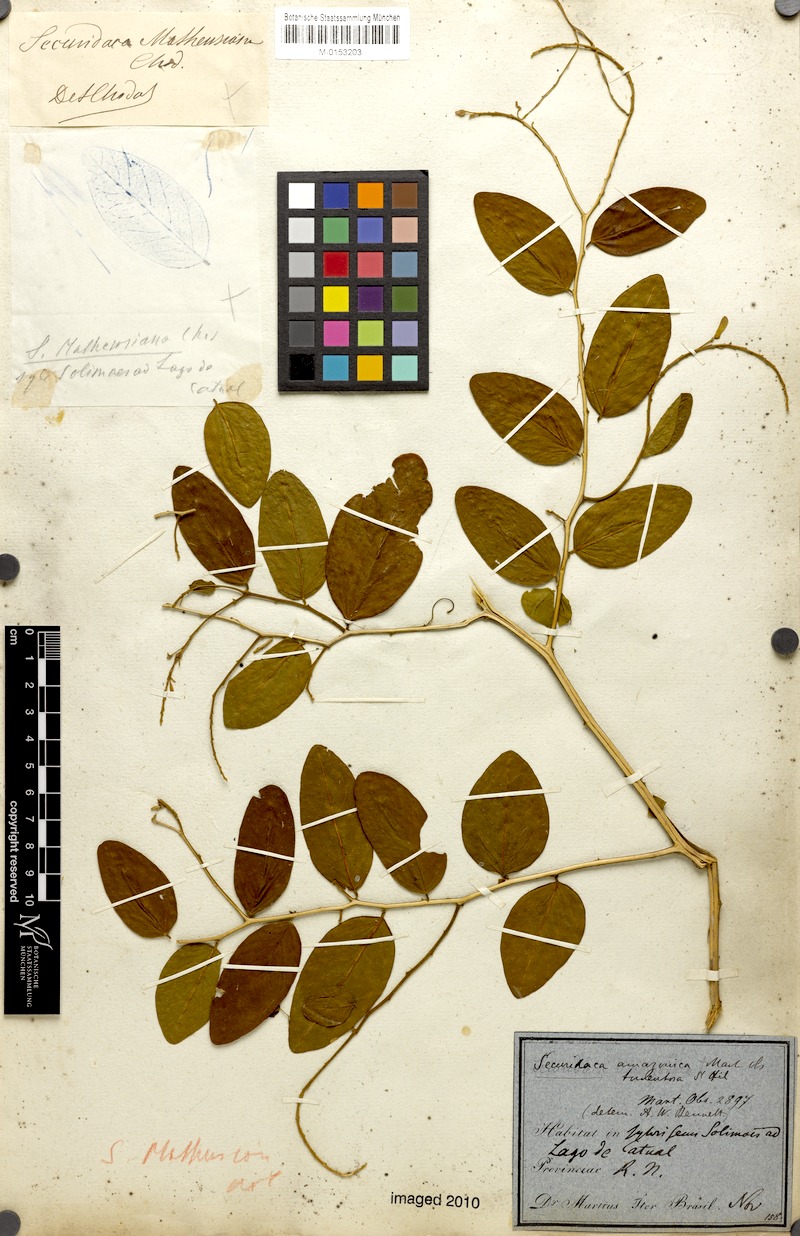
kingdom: Plantae
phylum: Tracheophyta
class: Magnoliopsida
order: Fabales
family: Polygalaceae
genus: Securidaca
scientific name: Securidaca tomentosa
